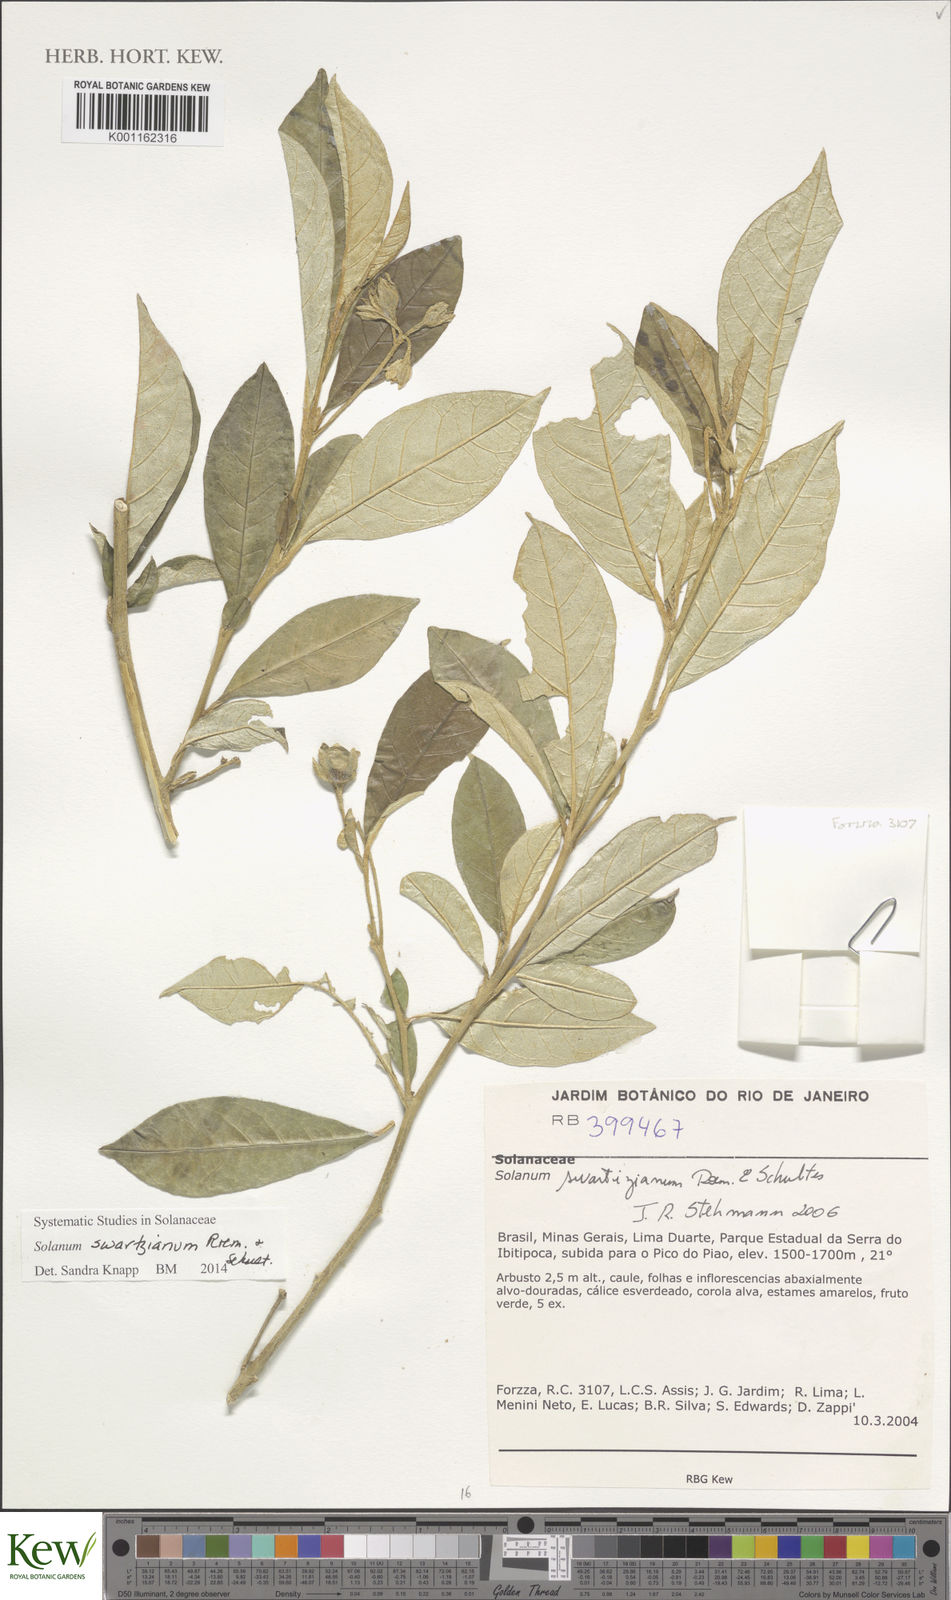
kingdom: Plantae
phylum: Tracheophyta
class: Magnoliopsida
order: Solanales
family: Solanaceae
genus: Solanum
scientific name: Solanum swartzianum
